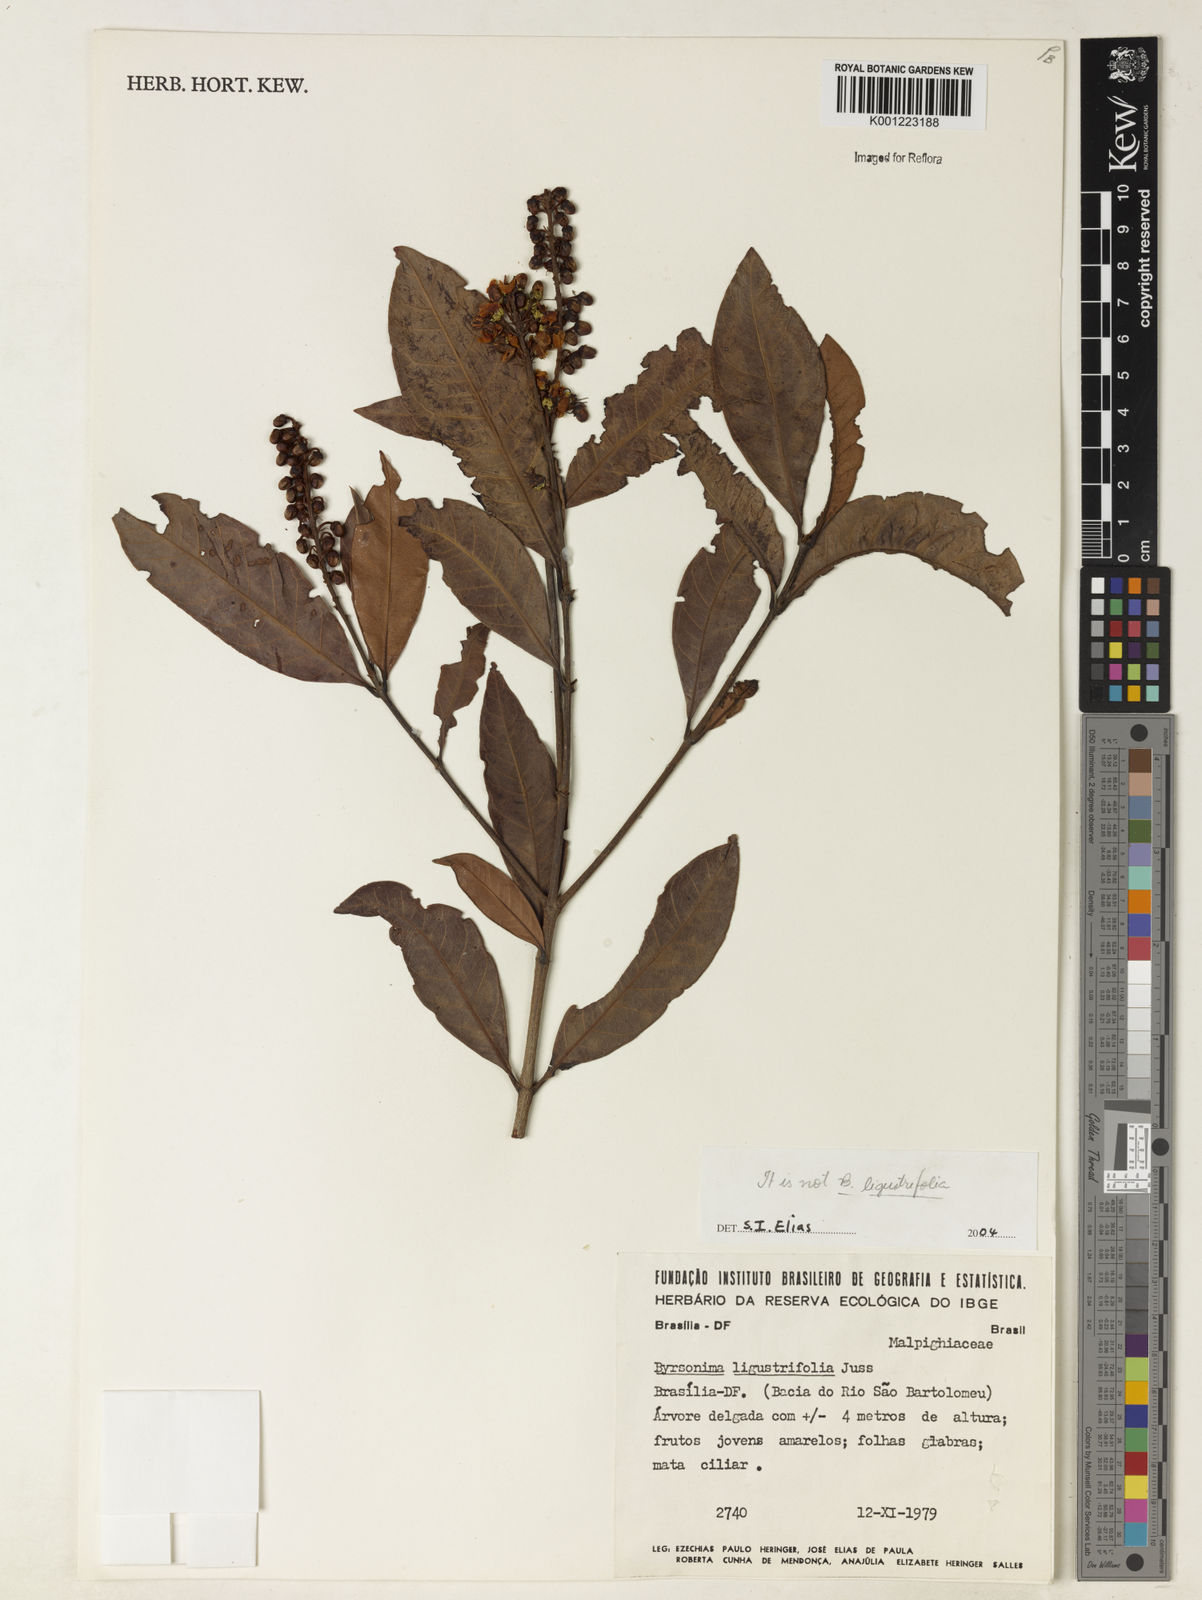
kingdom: Plantae
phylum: Tracheophyta
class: Magnoliopsida
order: Malpighiales
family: Malpighiaceae
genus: Byrsonima
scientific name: Byrsonima
